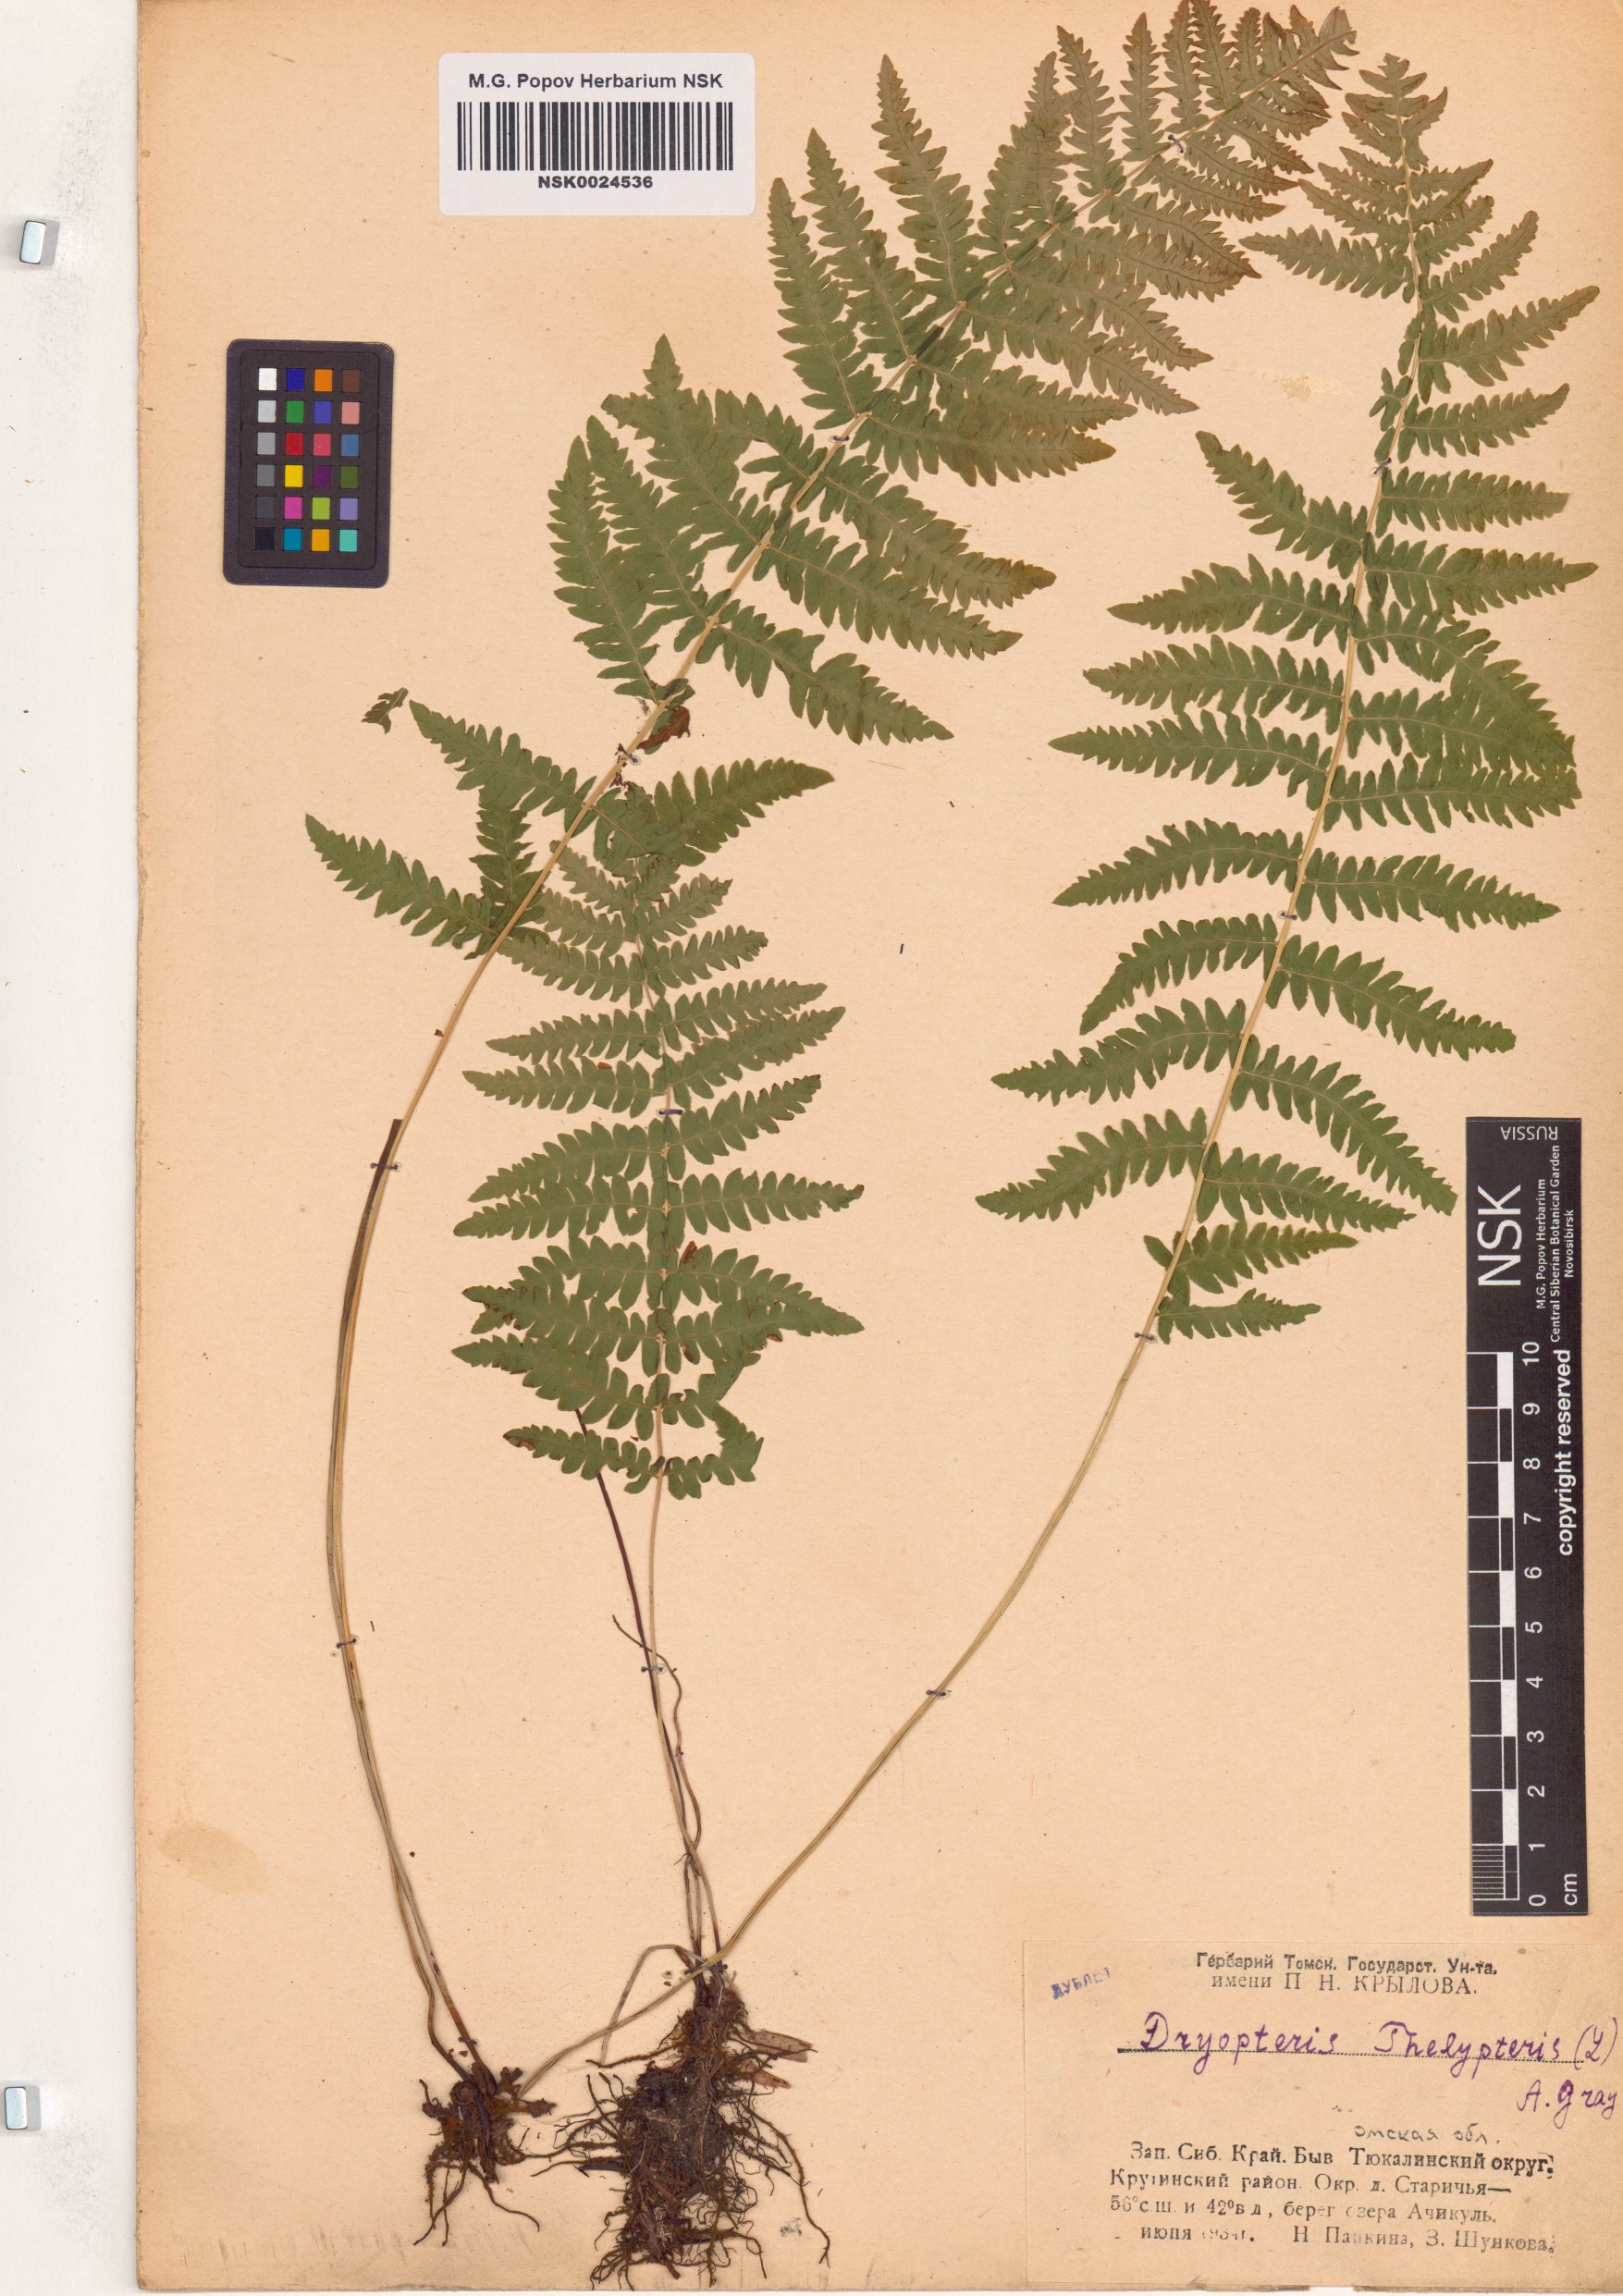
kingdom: Plantae
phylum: Tracheophyta
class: Polypodiopsida
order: Polypodiales
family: Thelypteridaceae
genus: Thelypteris
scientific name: Thelypteris palustris
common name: Marsh fern
